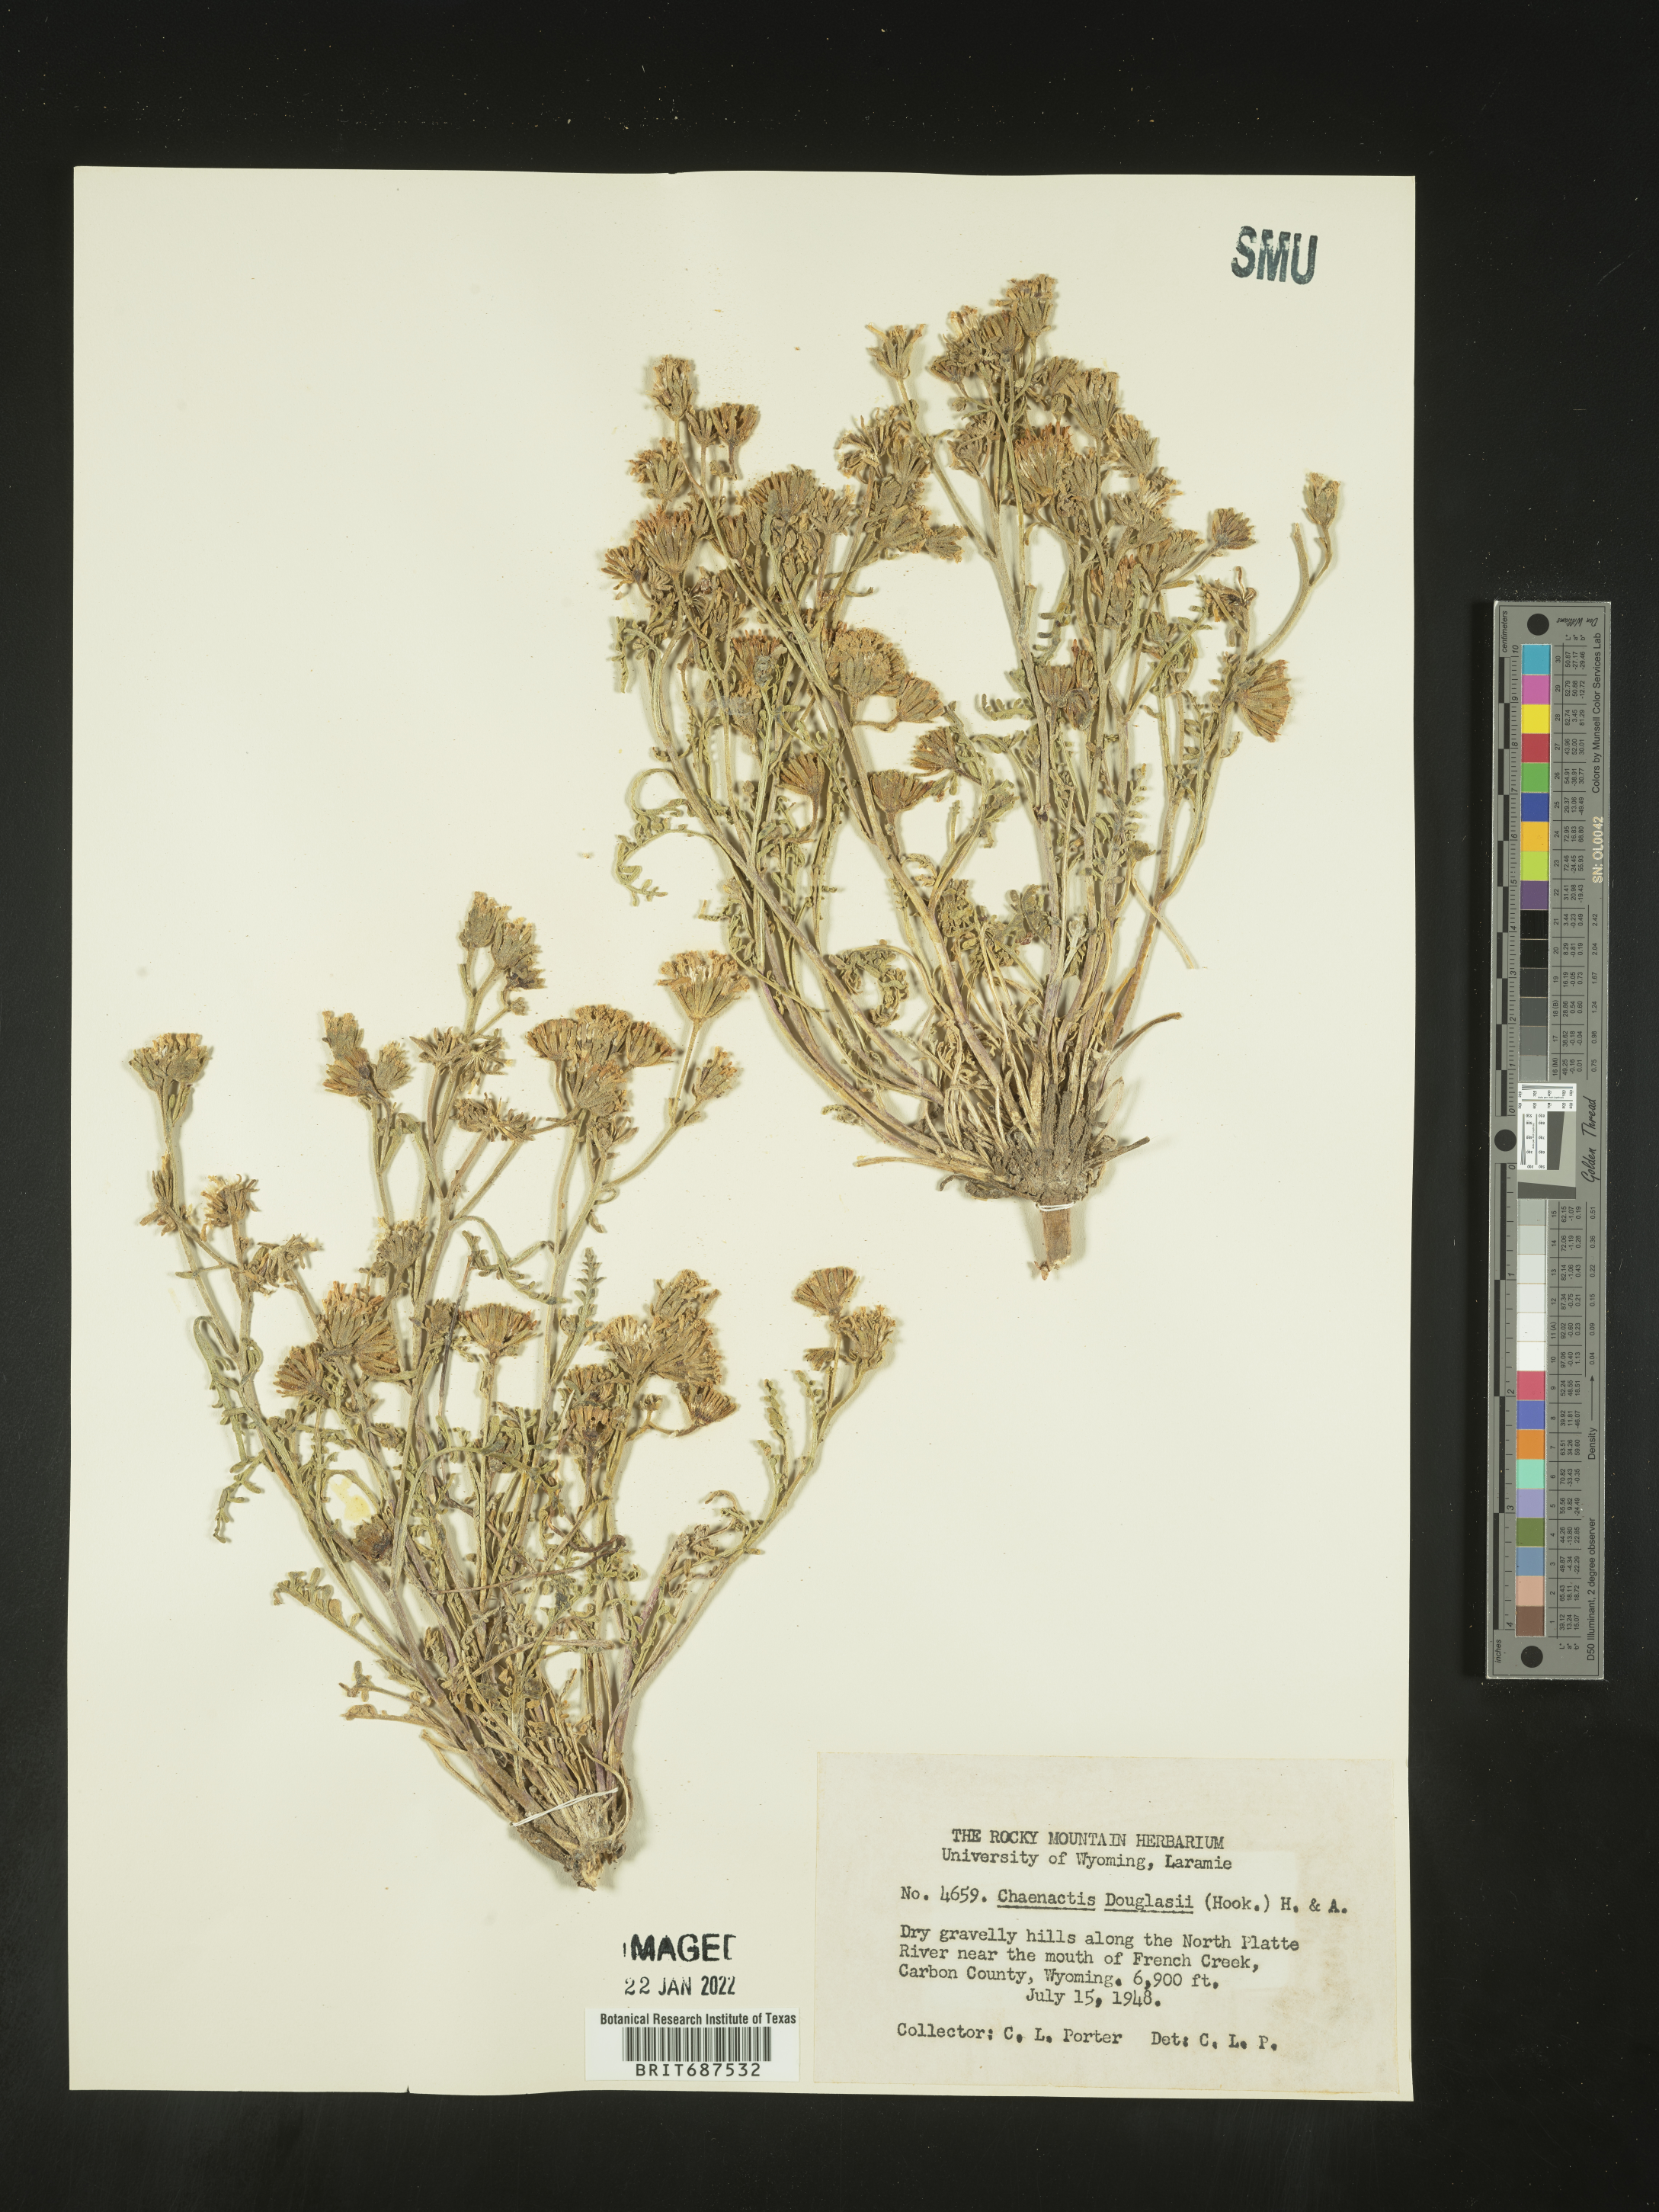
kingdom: Plantae
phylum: Tracheophyta
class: Magnoliopsida
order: Asterales
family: Asteraceae
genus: Chaenactis
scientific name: Chaenactis douglasii
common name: Hoary pincushion
